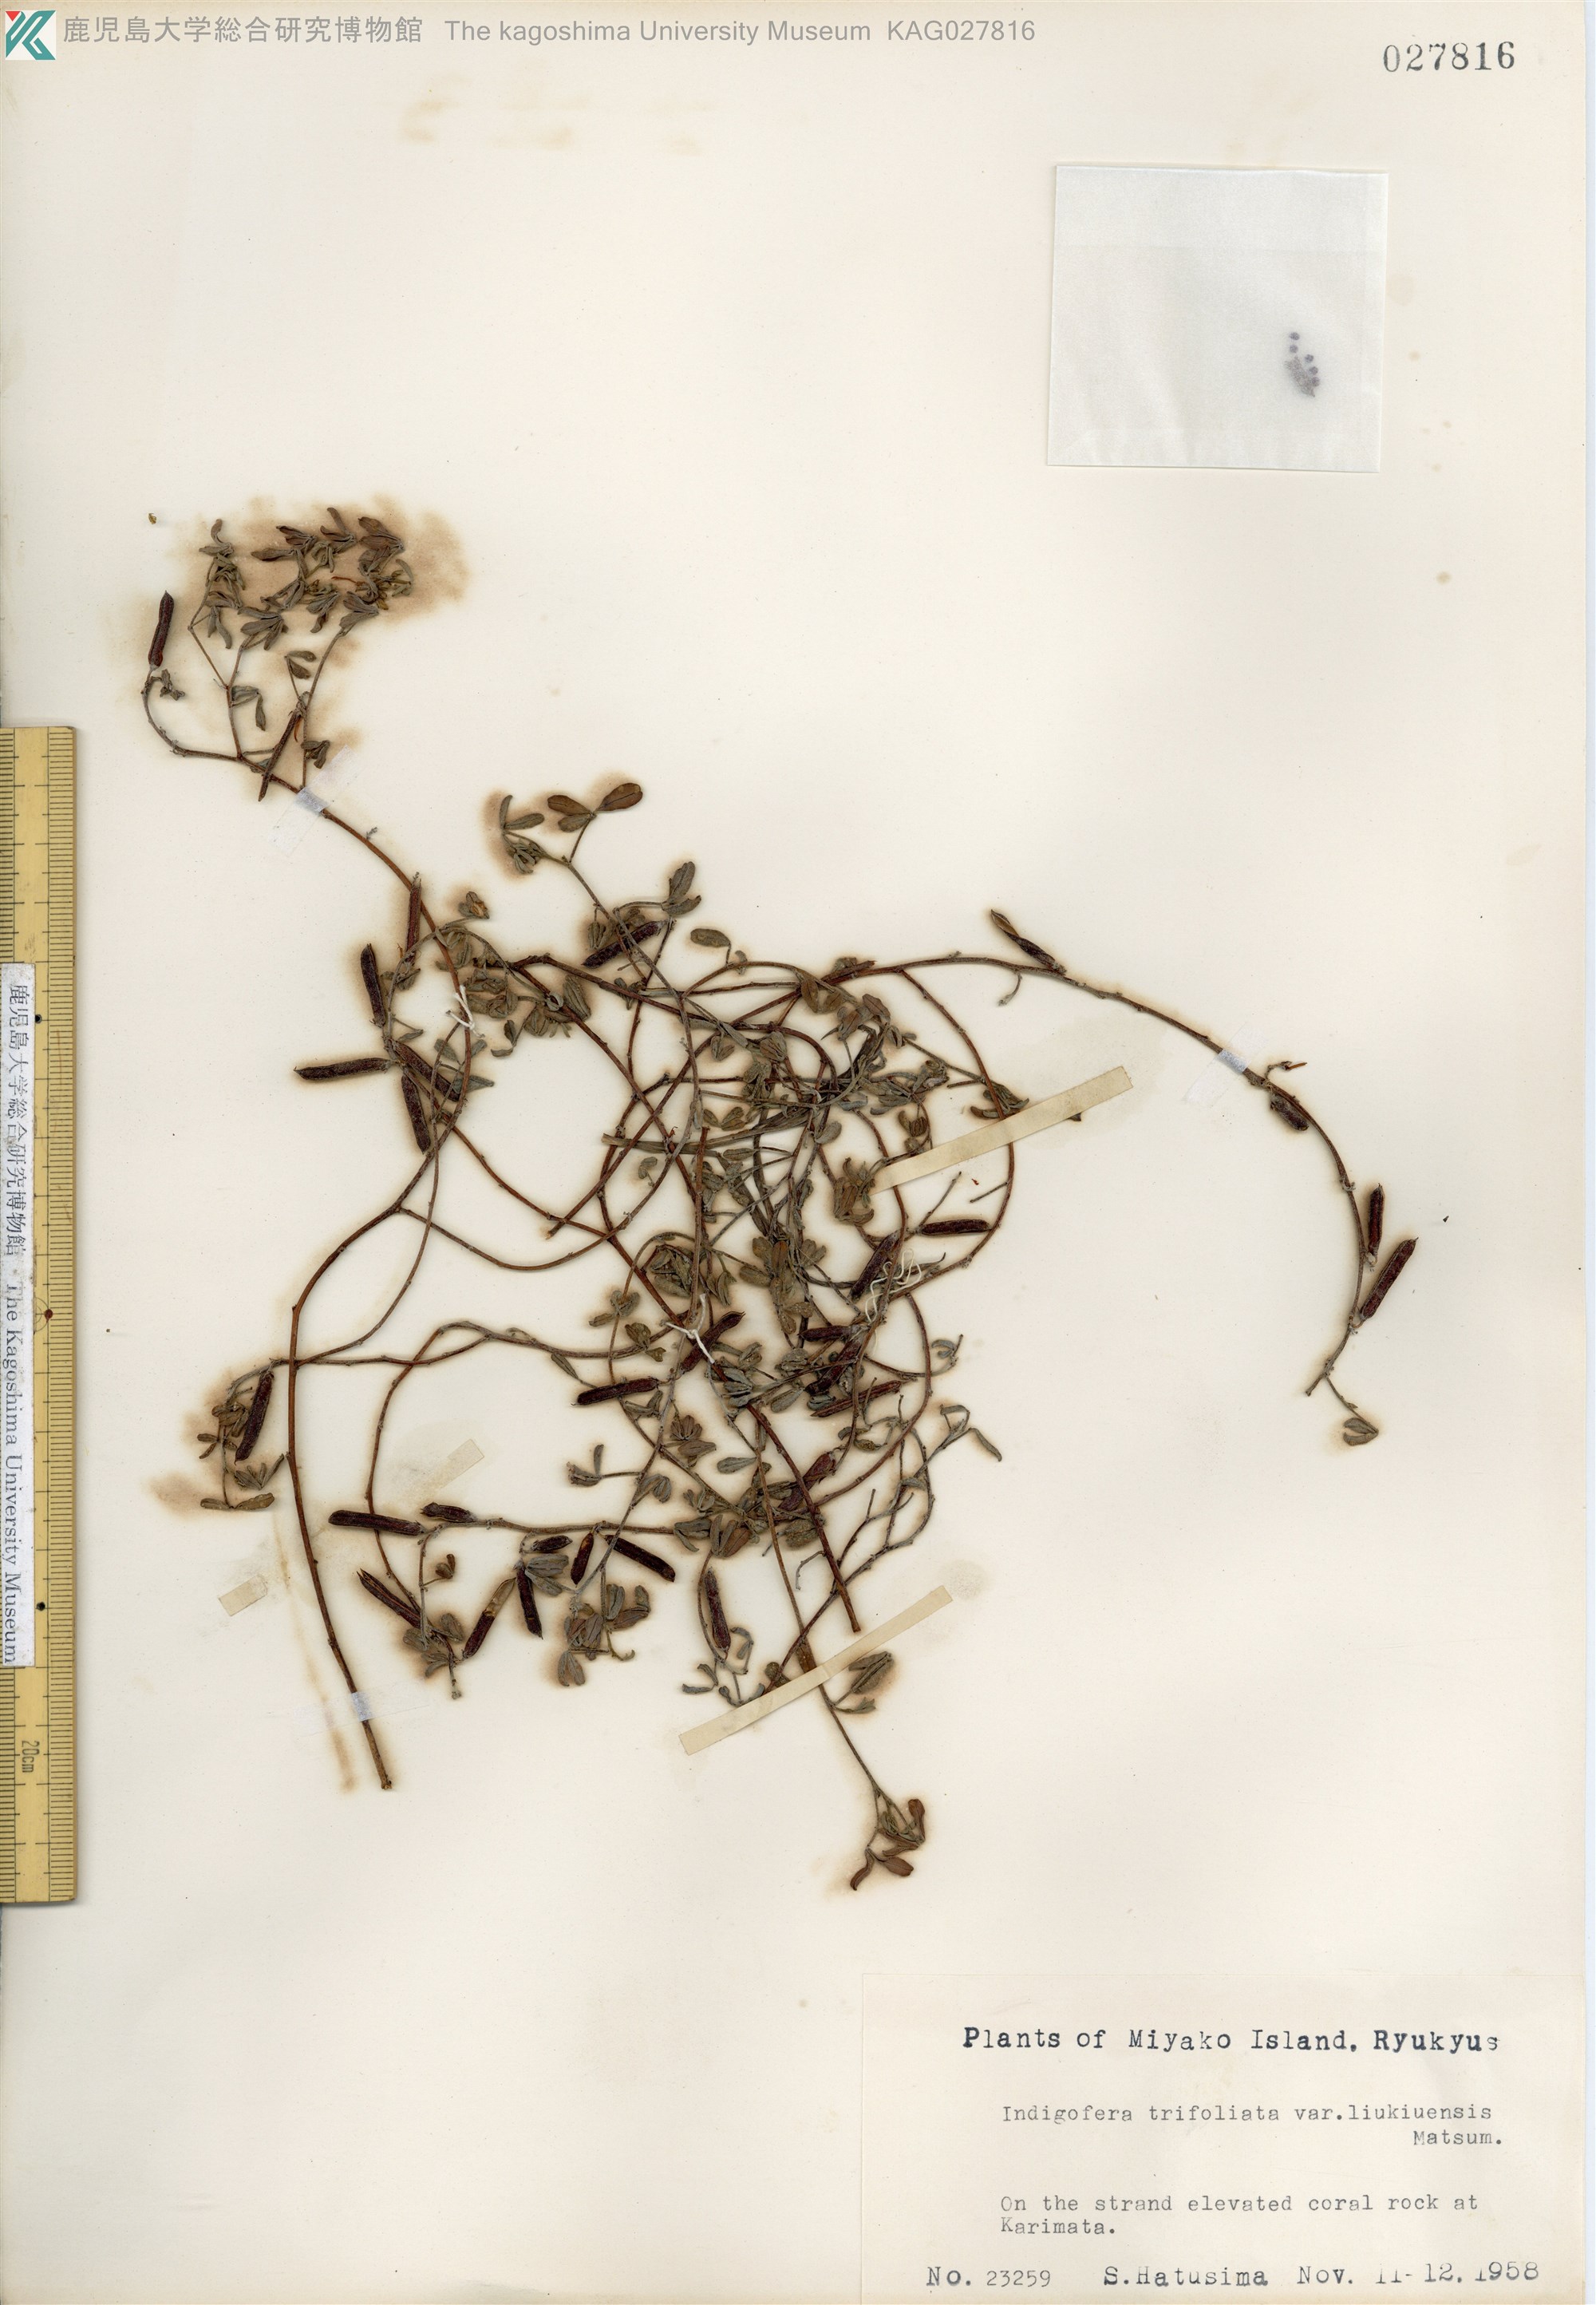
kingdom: Plantae
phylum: Tracheophyta
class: Magnoliopsida
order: Fabales
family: Fabaceae
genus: Indigofera
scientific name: Indigofera trifoliata
